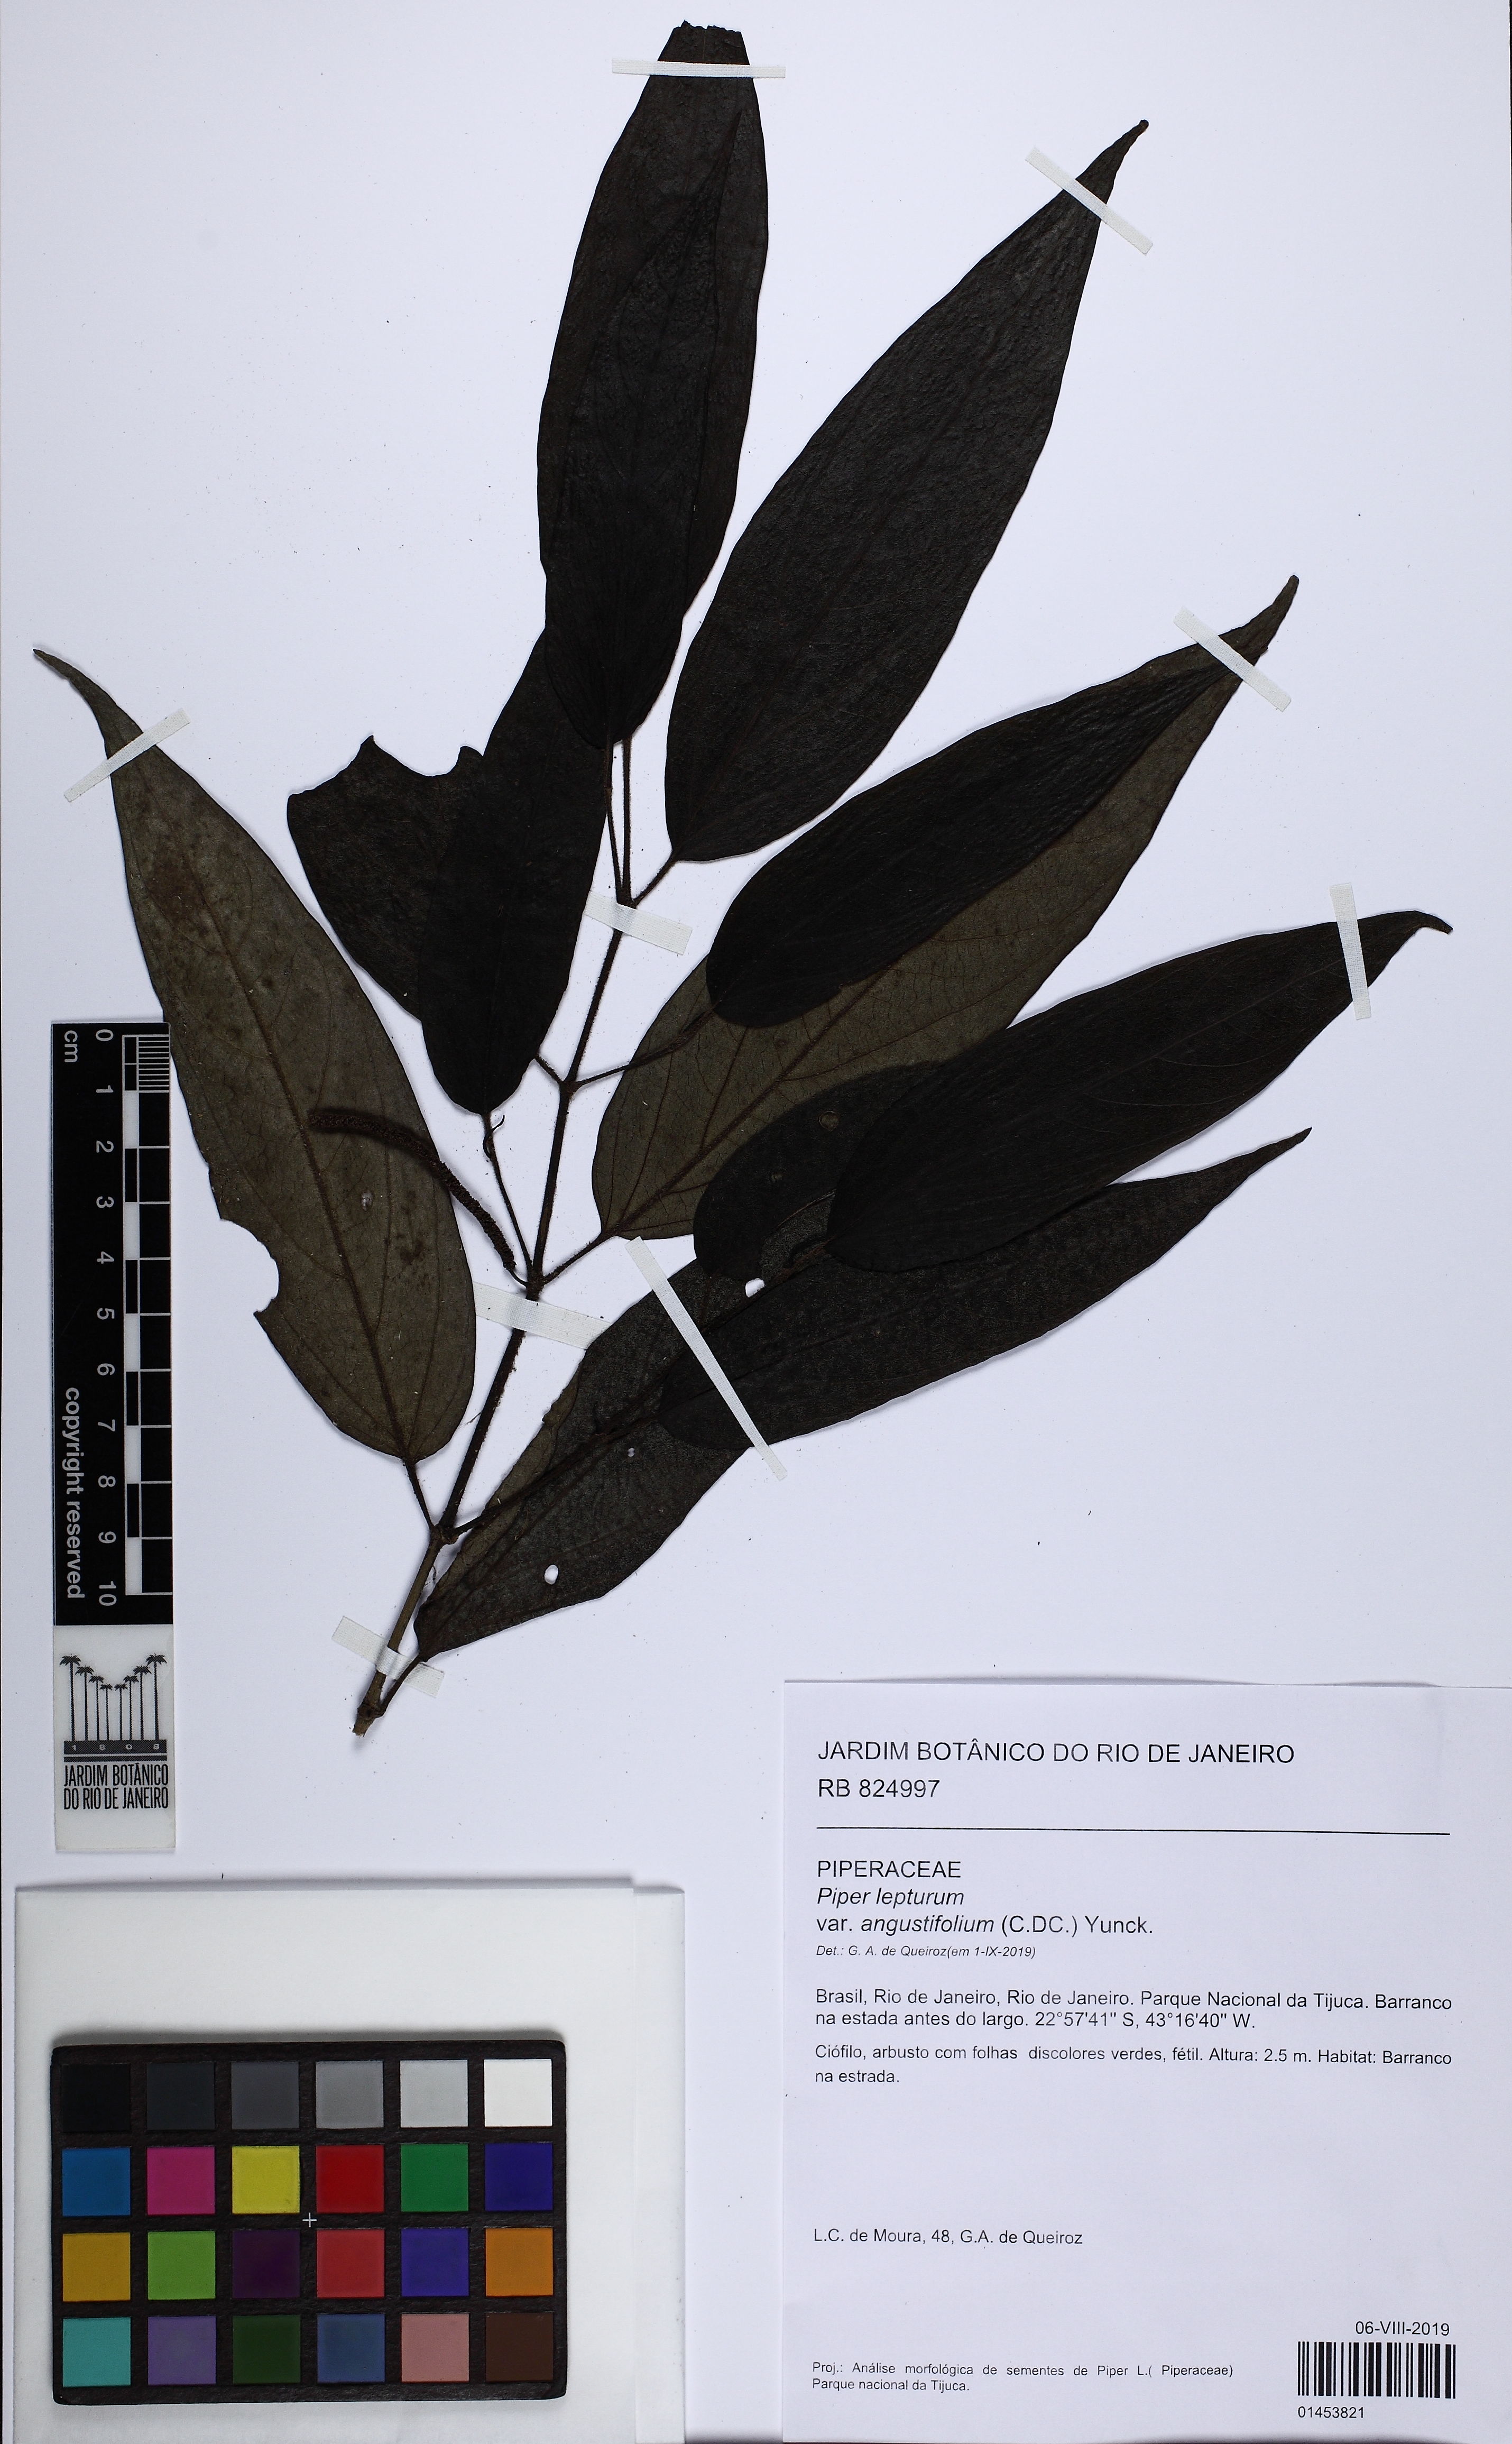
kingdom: Plantae
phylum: Tracheophyta
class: Magnoliopsida
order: Piperales
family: Piperaceae
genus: Piper
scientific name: Piper lepturum
